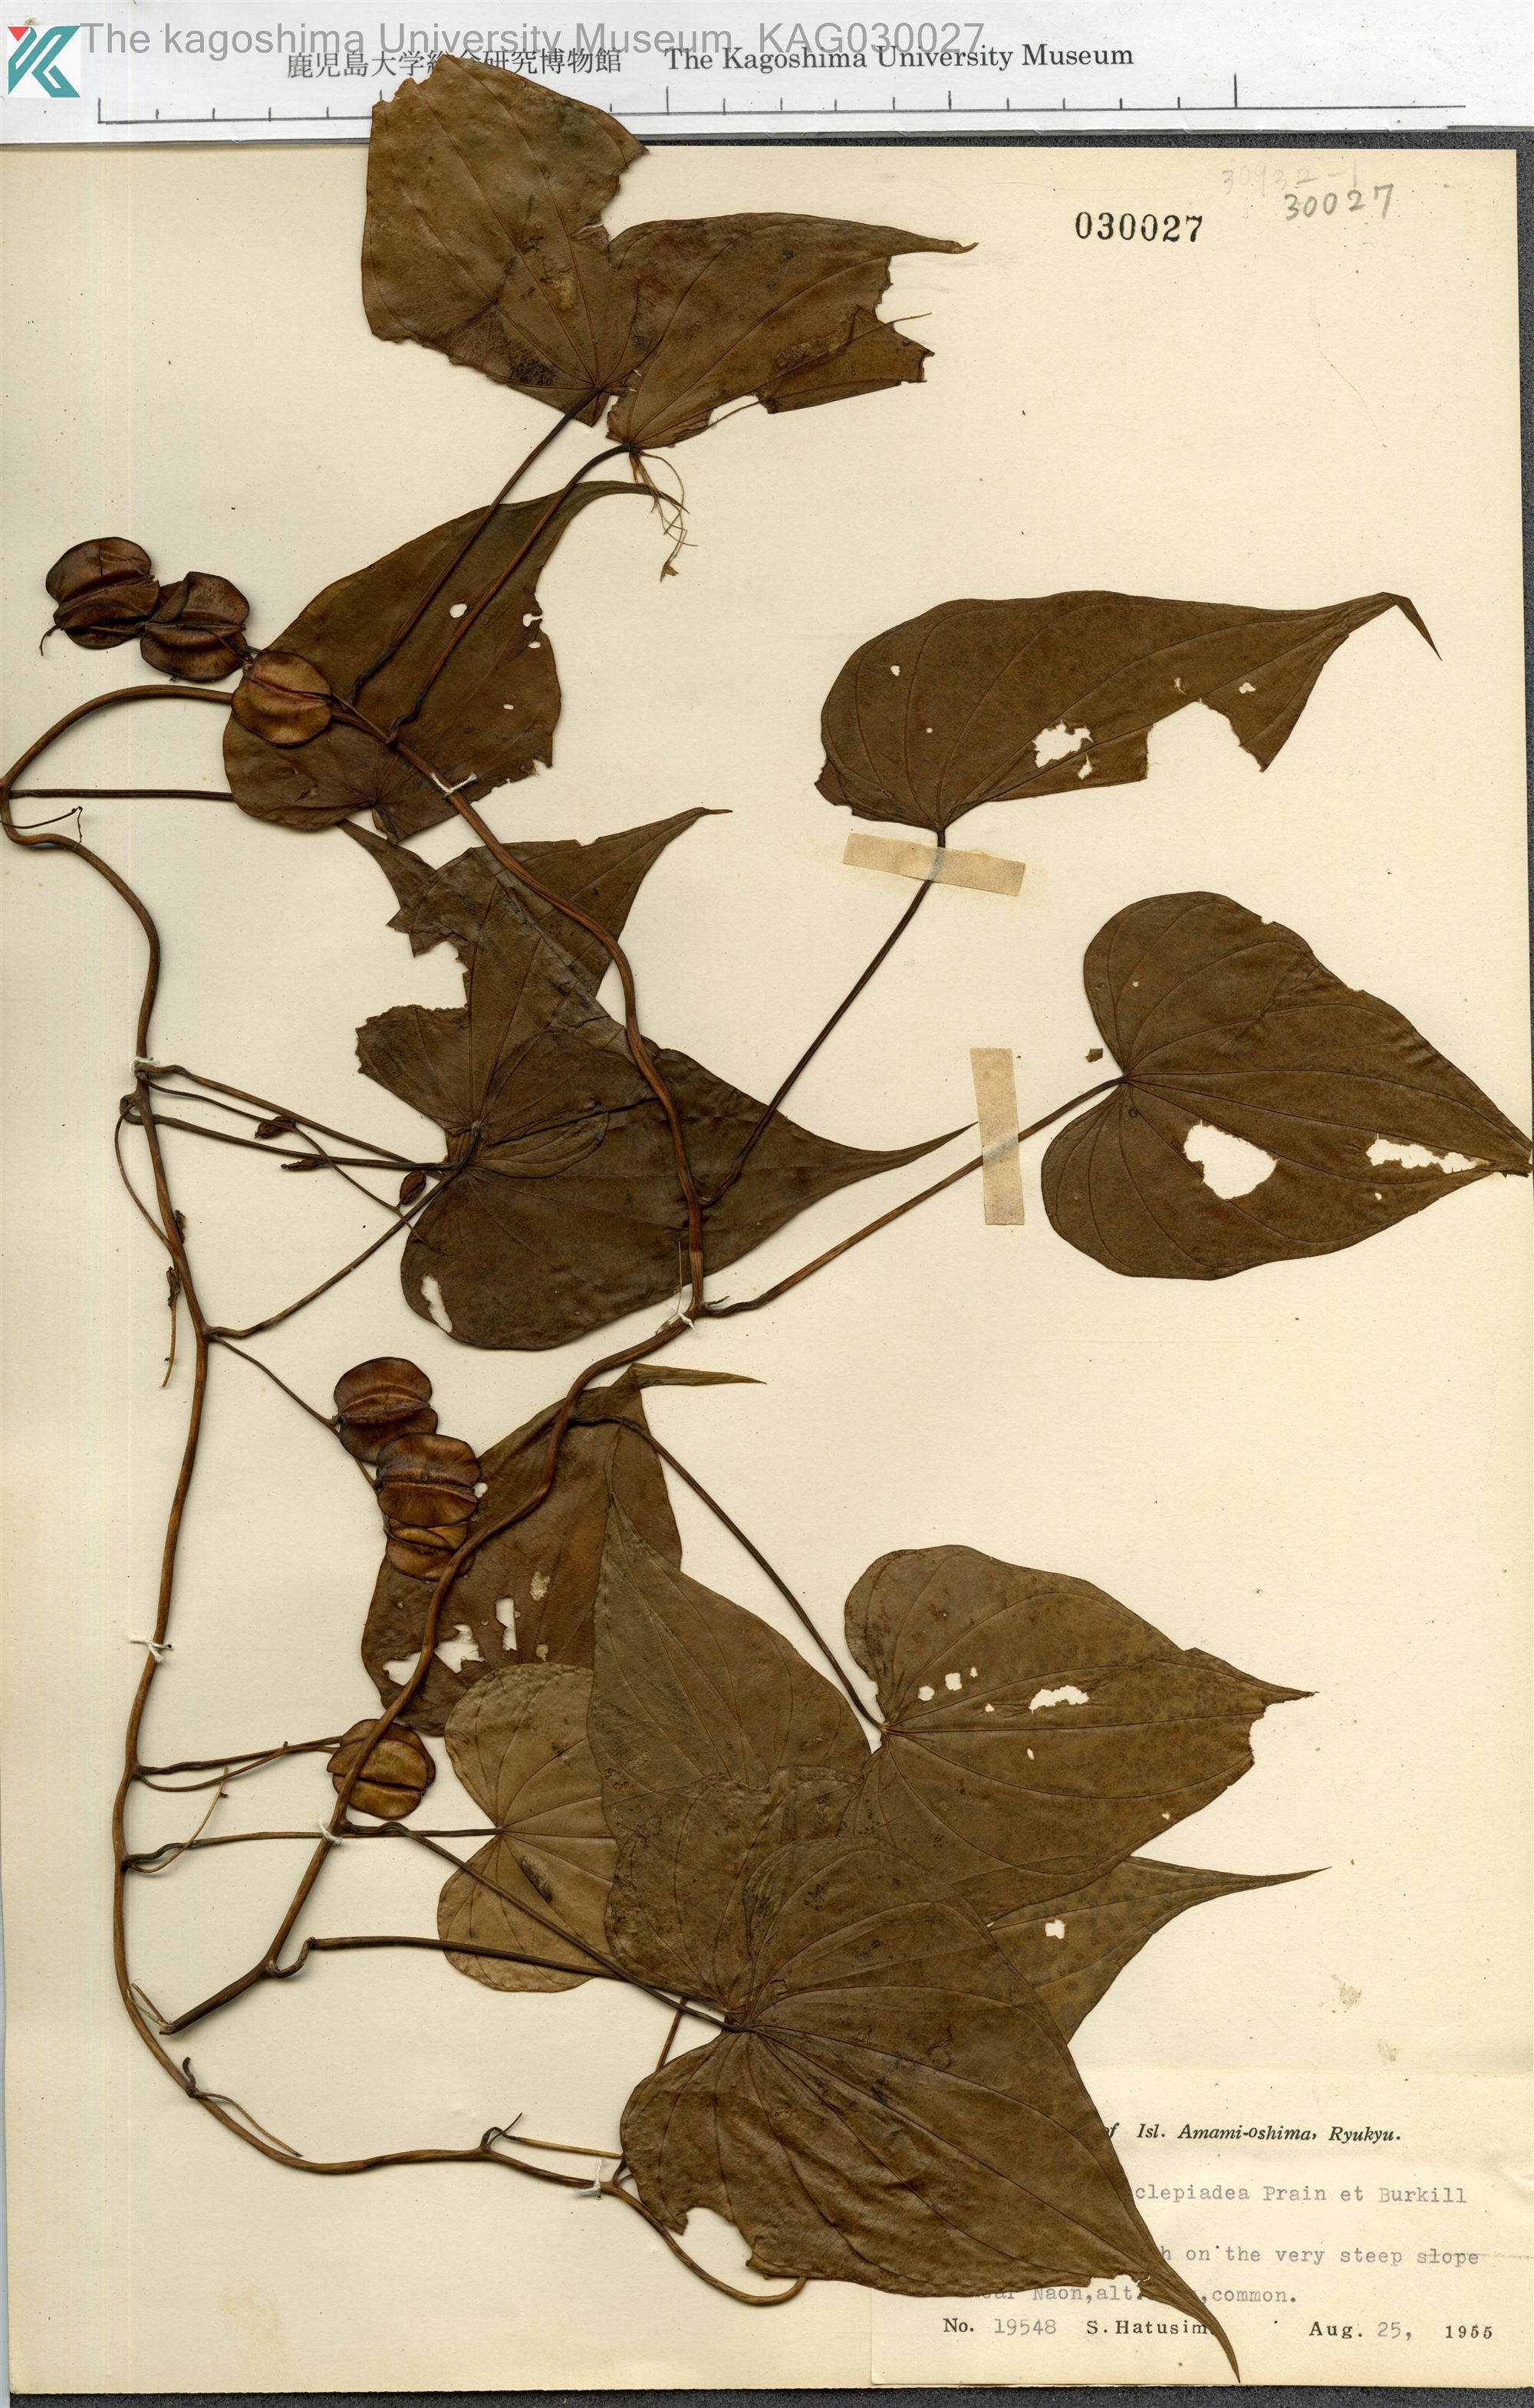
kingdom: Plantae
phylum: Tracheophyta
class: Liliopsida
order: Dioscoreales
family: Dioscoreaceae
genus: Dioscorea
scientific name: Dioscorea zentaroana
